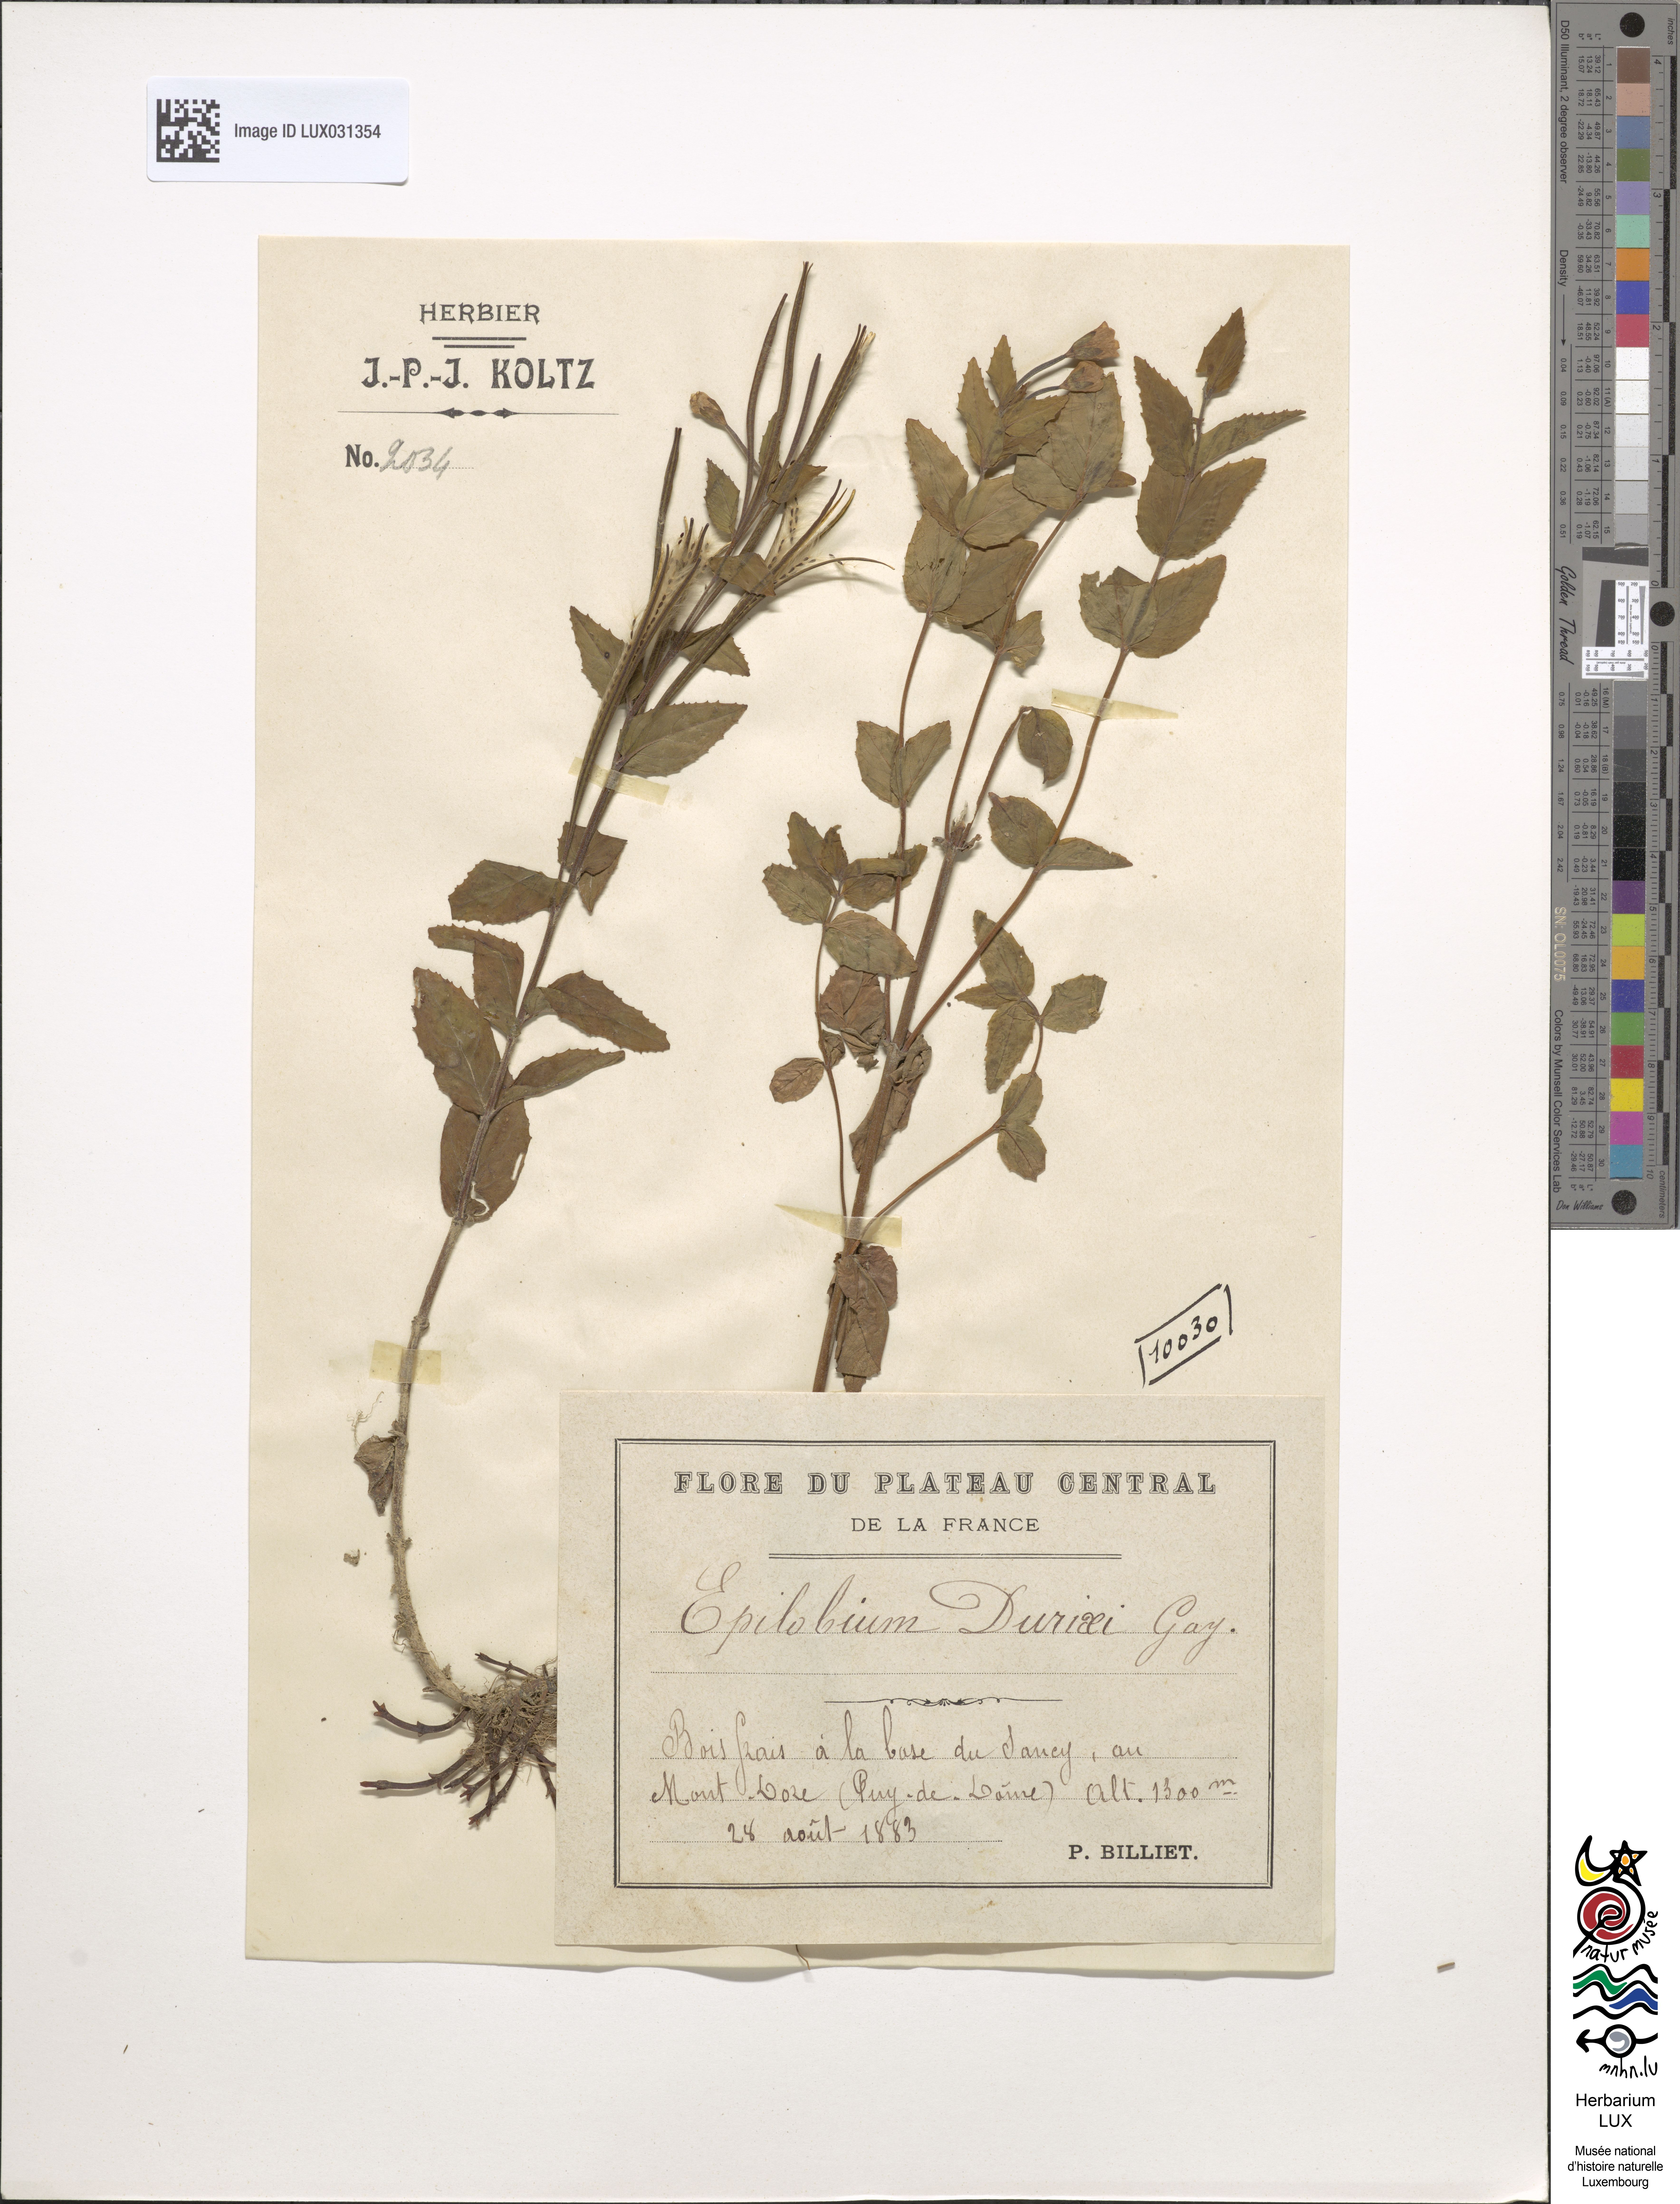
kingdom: Plantae
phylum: Tracheophyta
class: Magnoliopsida
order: Myrtales
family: Onagraceae
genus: Epilobium
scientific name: Epilobium duriaei
